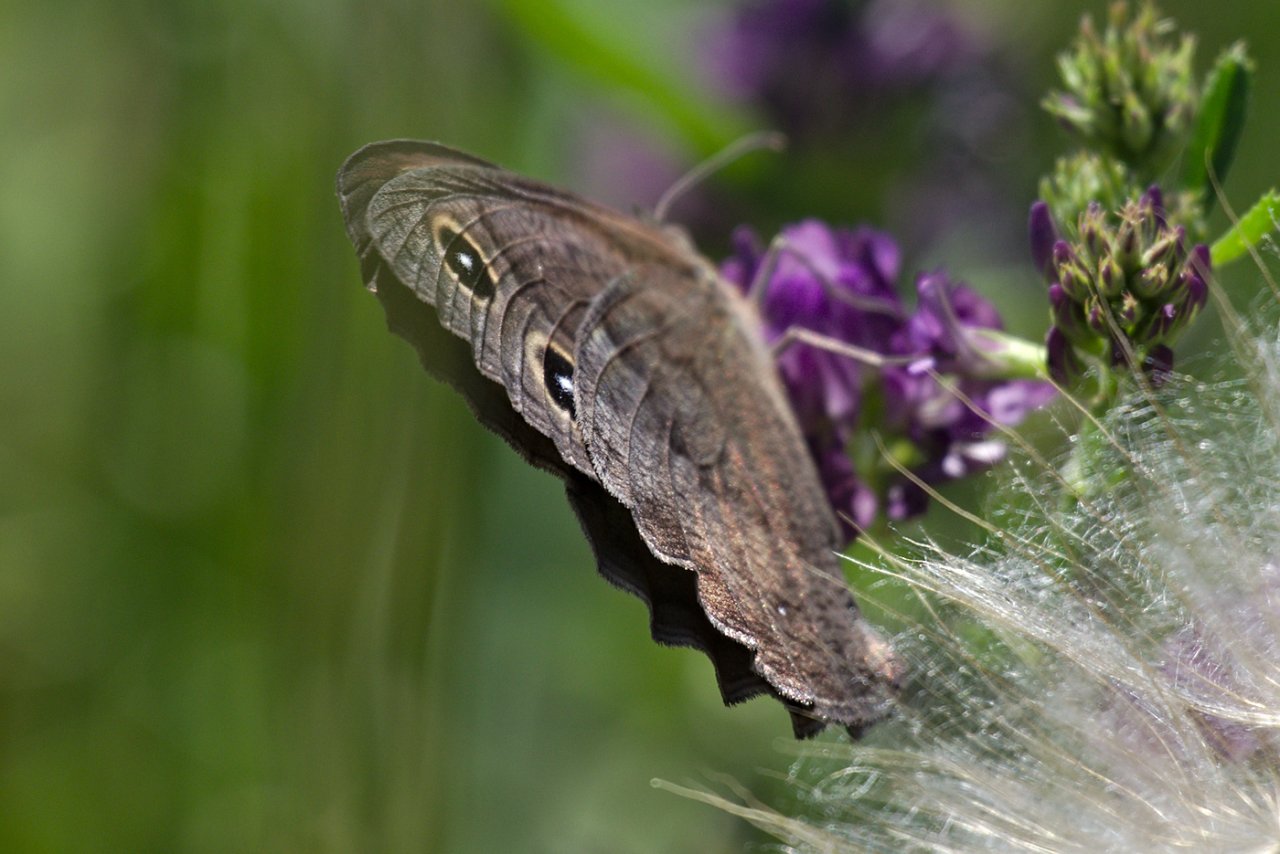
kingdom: Animalia
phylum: Arthropoda
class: Insecta
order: Lepidoptera
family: Nymphalidae
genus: Cercyonis
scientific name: Cercyonis pegala
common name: Common Wood-Nymph
